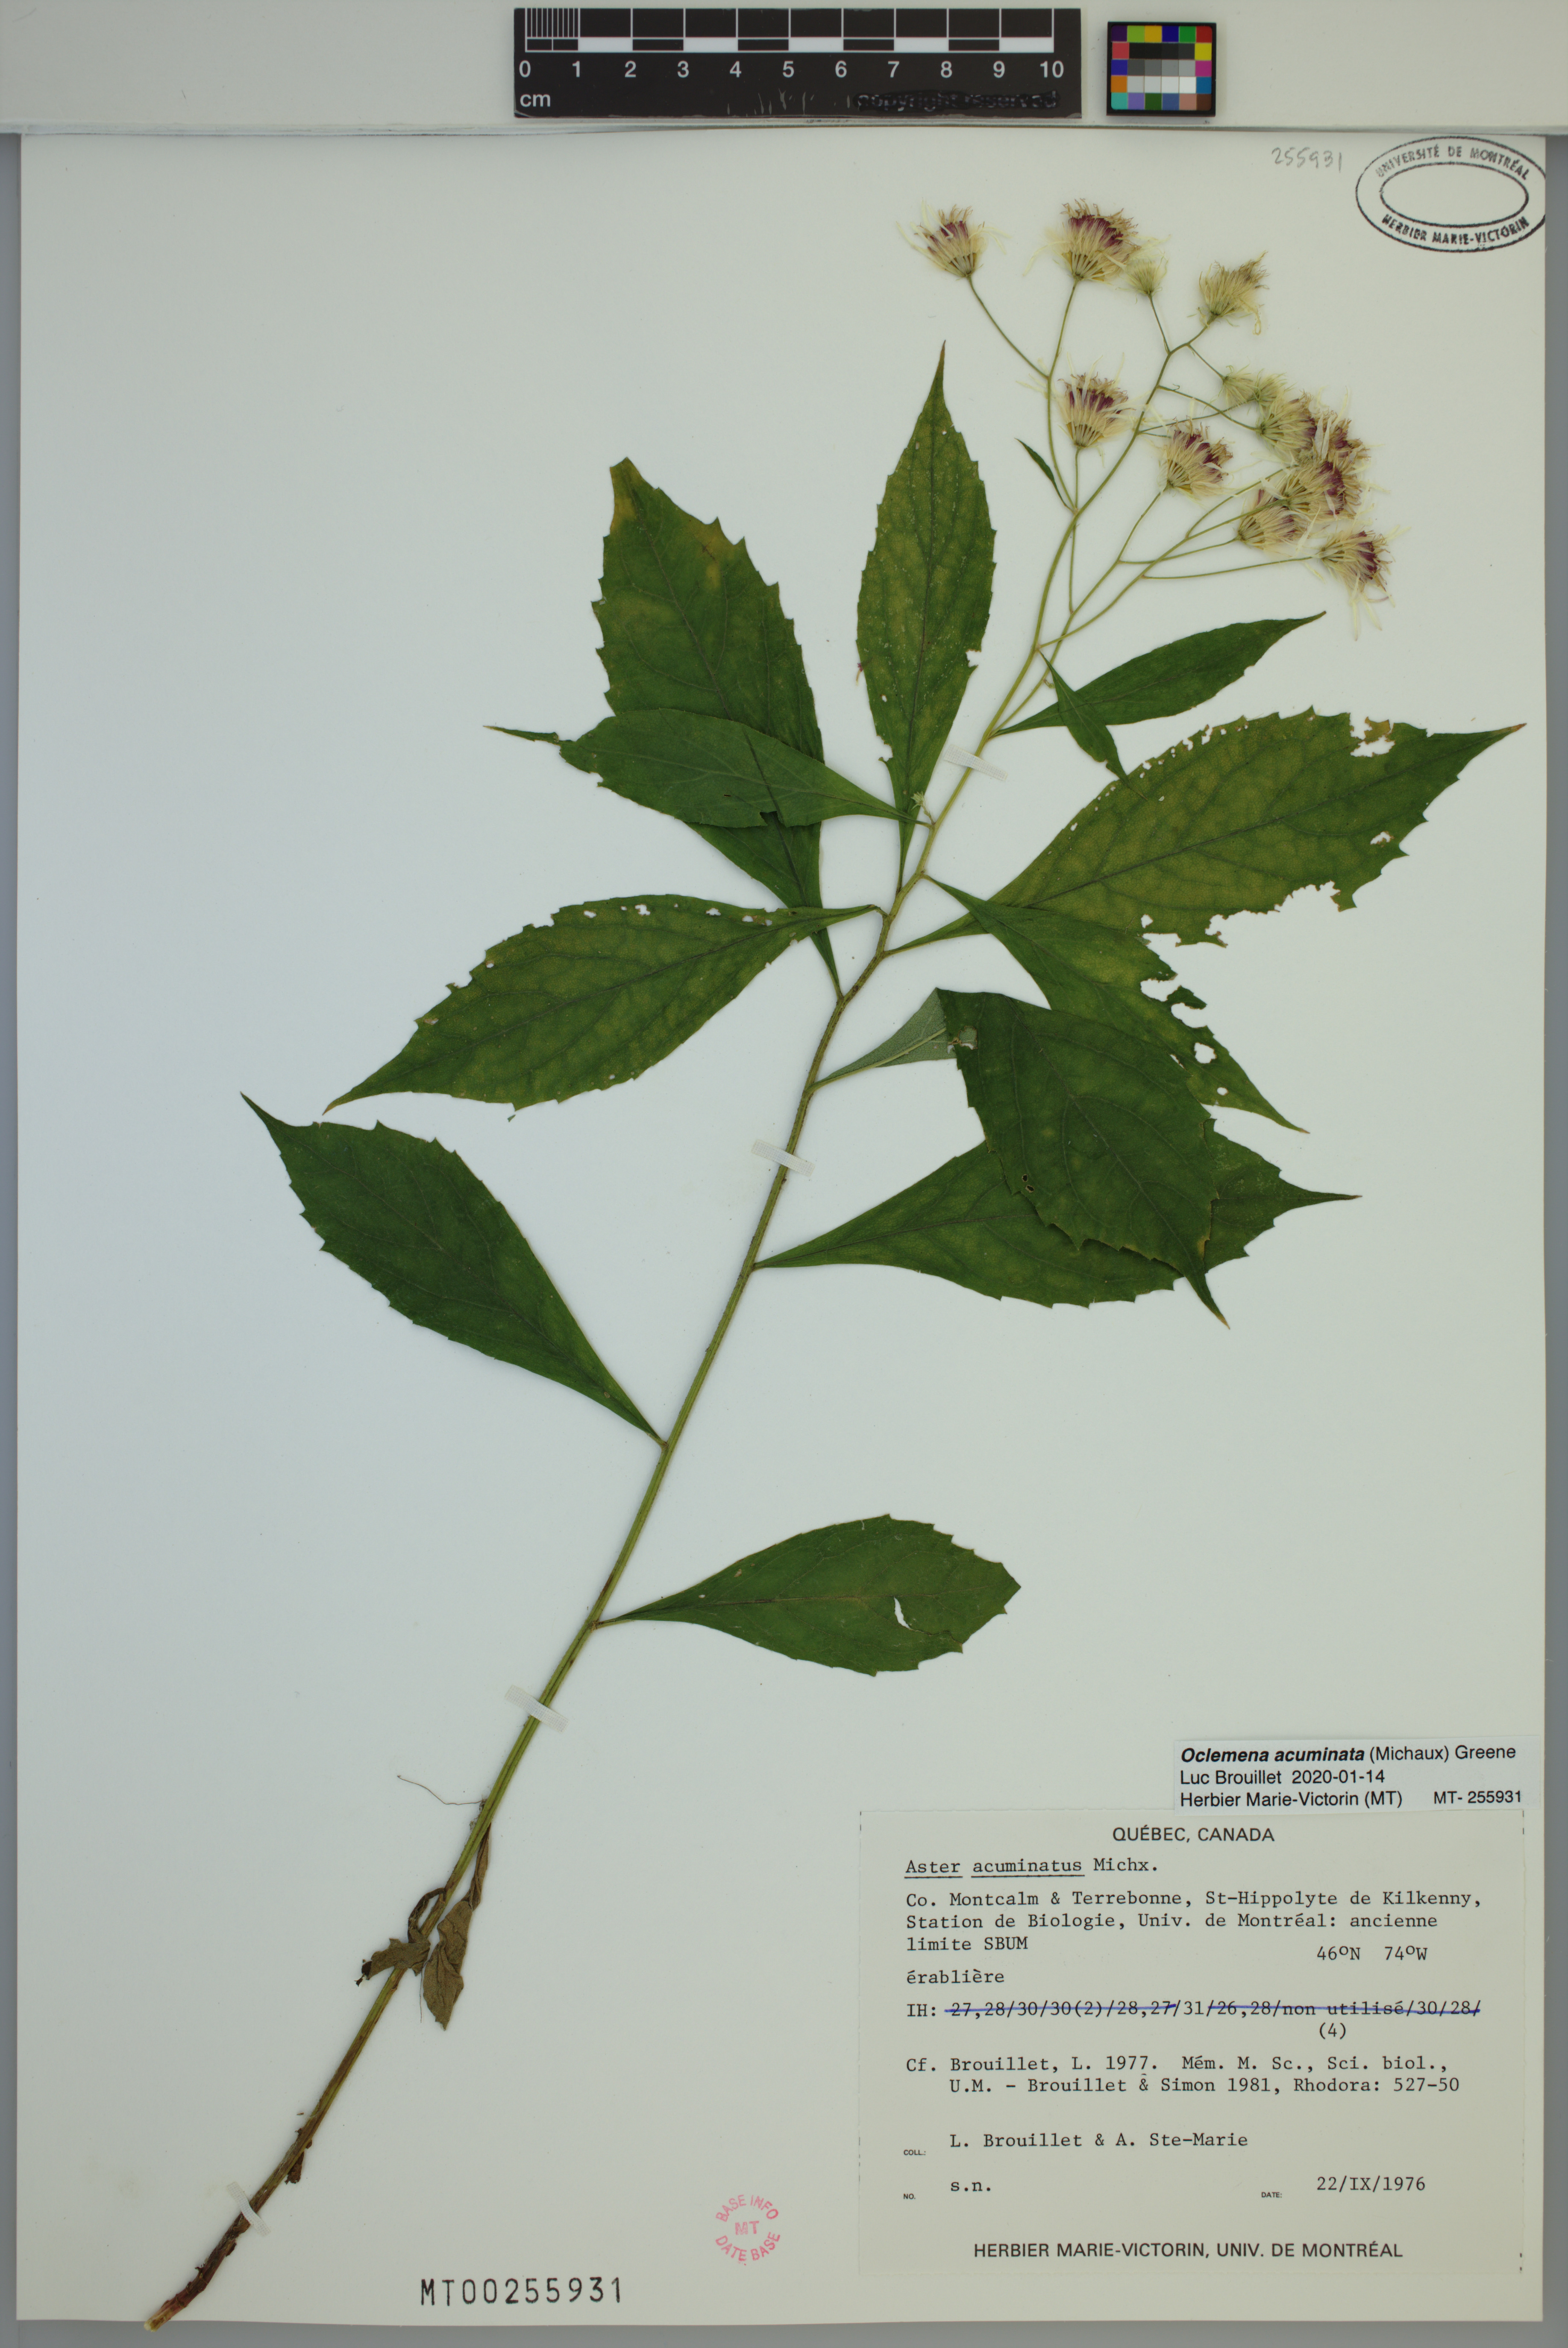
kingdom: Plantae
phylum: Tracheophyta
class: Magnoliopsida
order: Asterales
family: Asteraceae
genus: Oclemena
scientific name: Oclemena acuminata
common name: Mountain aster
